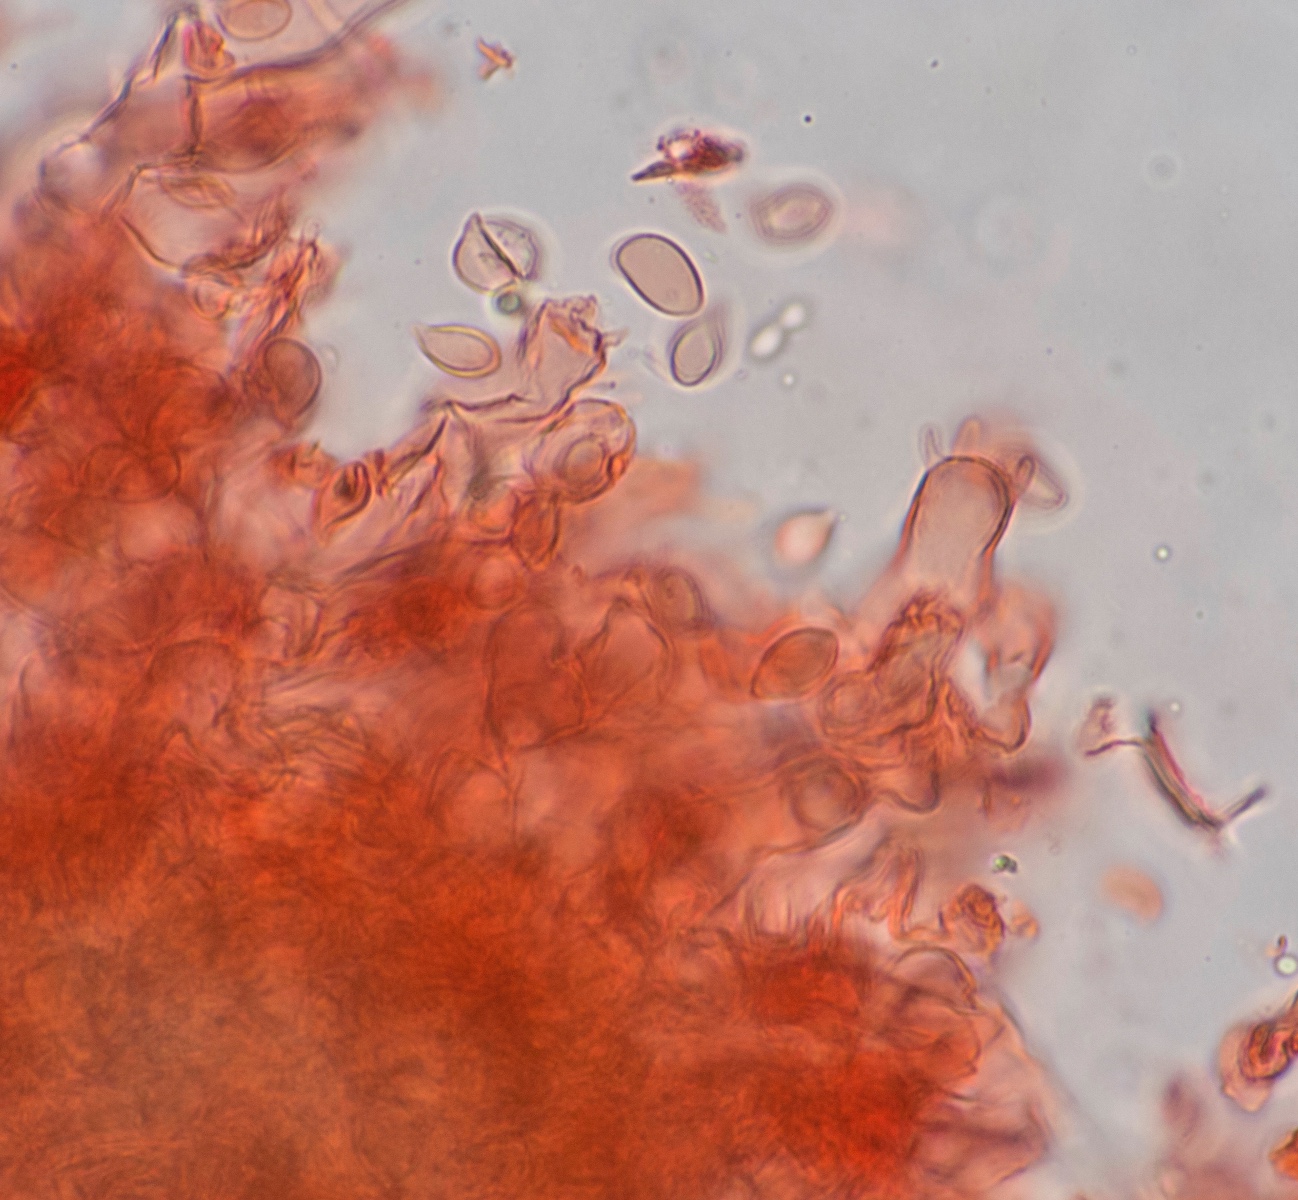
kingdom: Fungi
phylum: Basidiomycota
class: Agaricomycetes
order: Cantharellales
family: Botryobasidiaceae
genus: Botryobasidium
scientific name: Botryobasidium laeve
